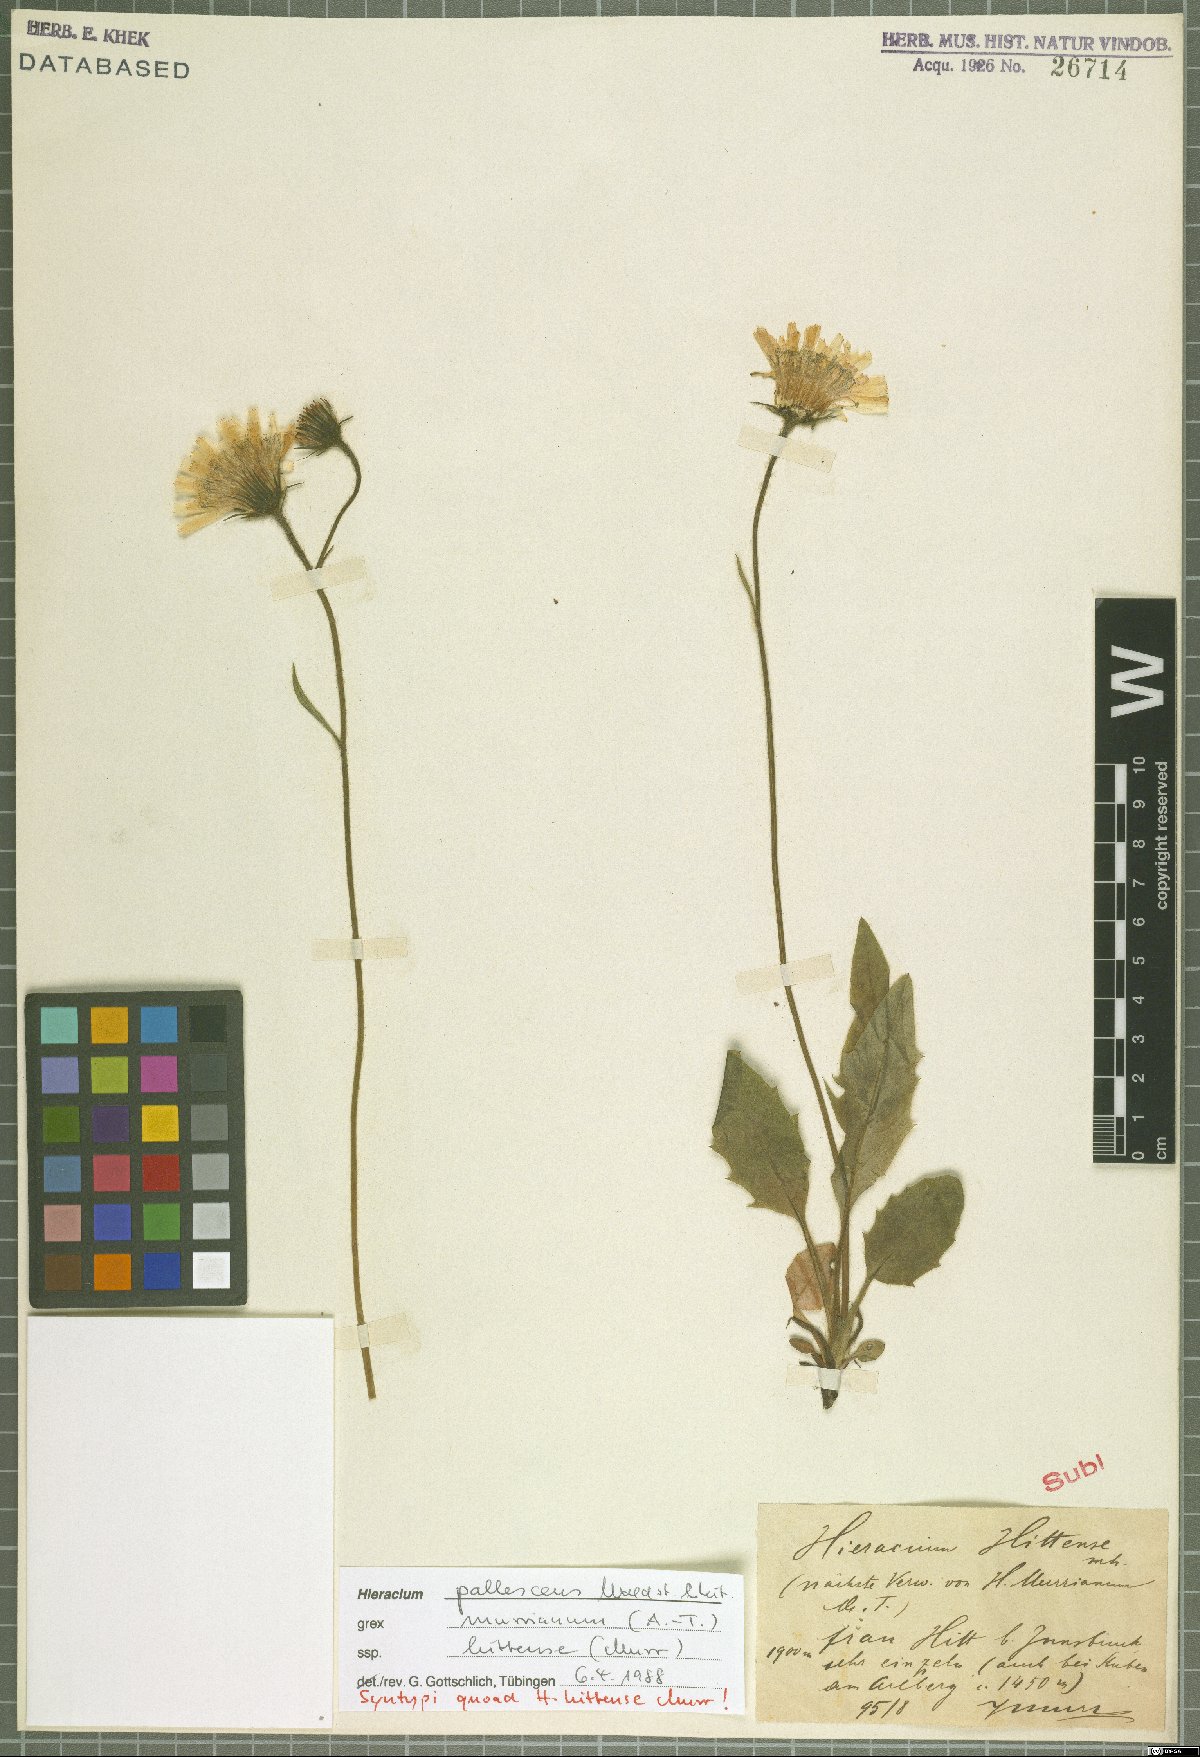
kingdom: Plantae
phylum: Tracheophyta
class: Magnoliopsida
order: Asterales
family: Asteraceae
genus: Hieracium
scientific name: Hieracium pallescens
